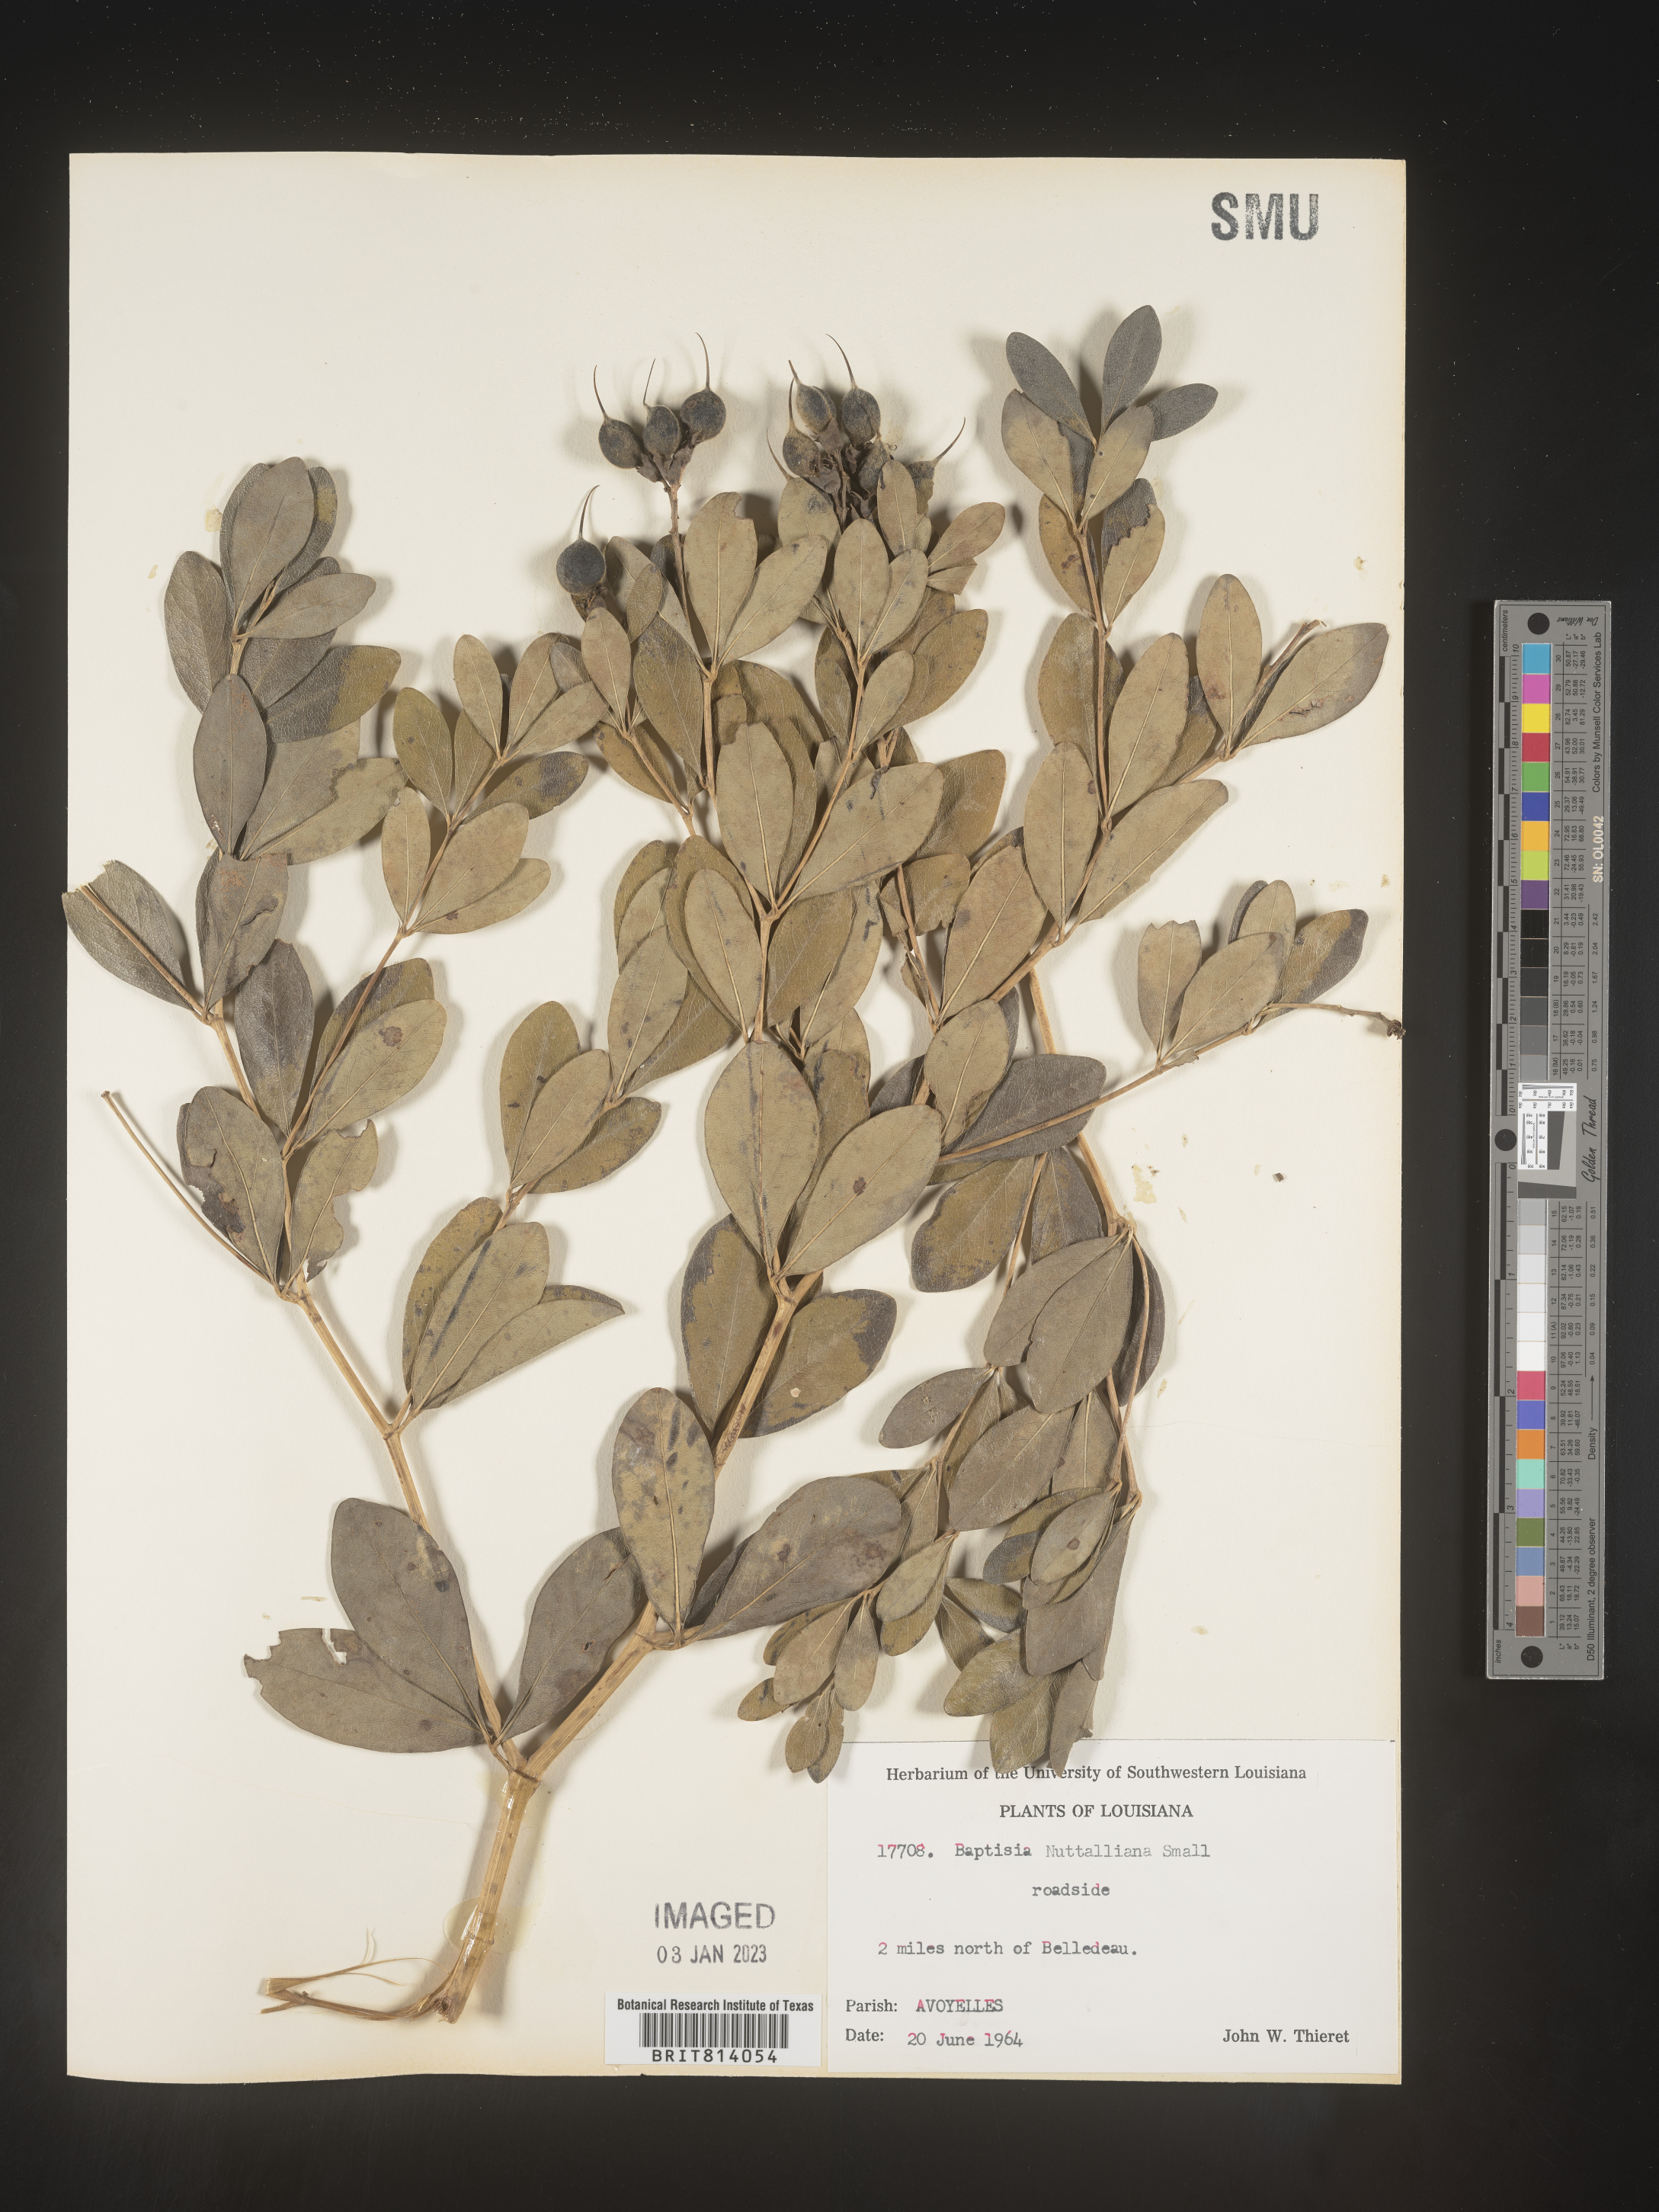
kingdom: Plantae
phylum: Tracheophyta
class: Magnoliopsida
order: Fabales
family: Fabaceae
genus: Baptisia
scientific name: Baptisia nuttalliana
